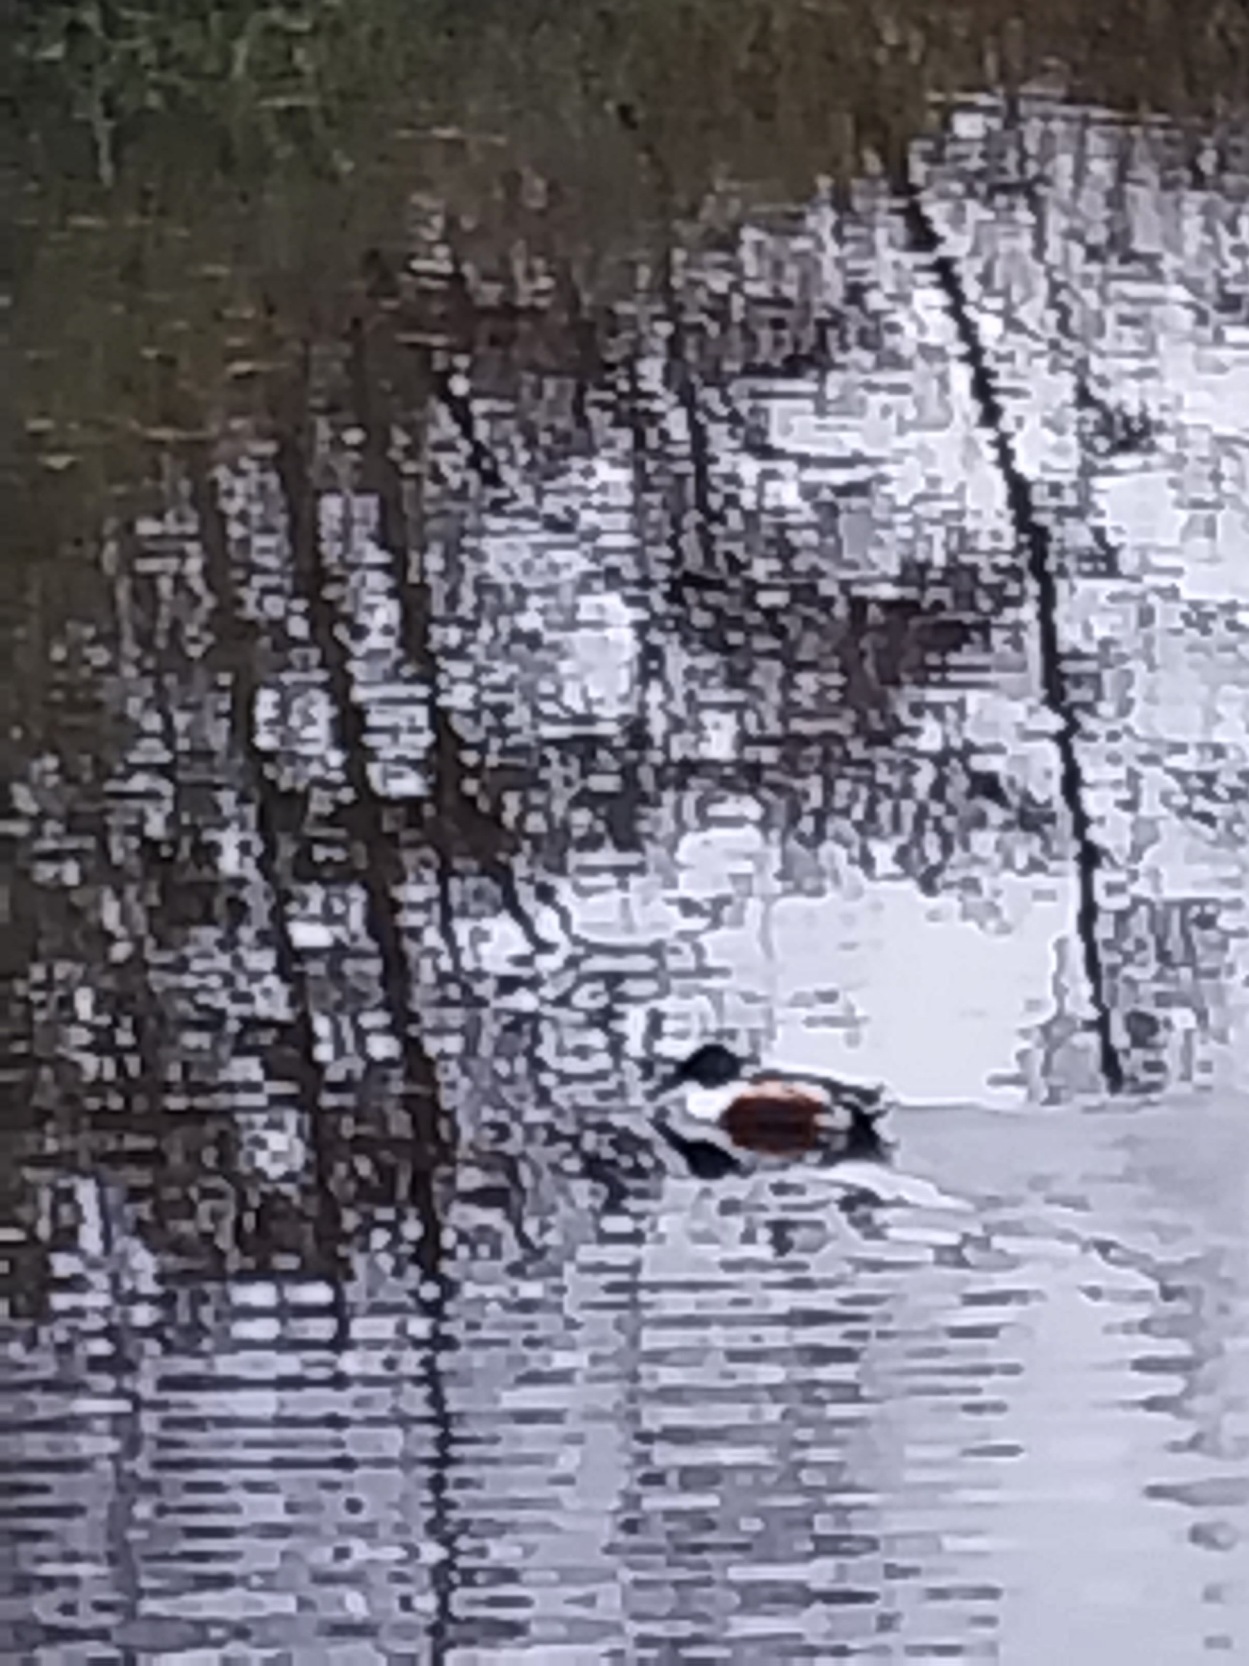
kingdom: Animalia
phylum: Chordata
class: Aves
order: Anseriformes
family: Anatidae
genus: Spatula
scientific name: Spatula clypeata
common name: Skeand
